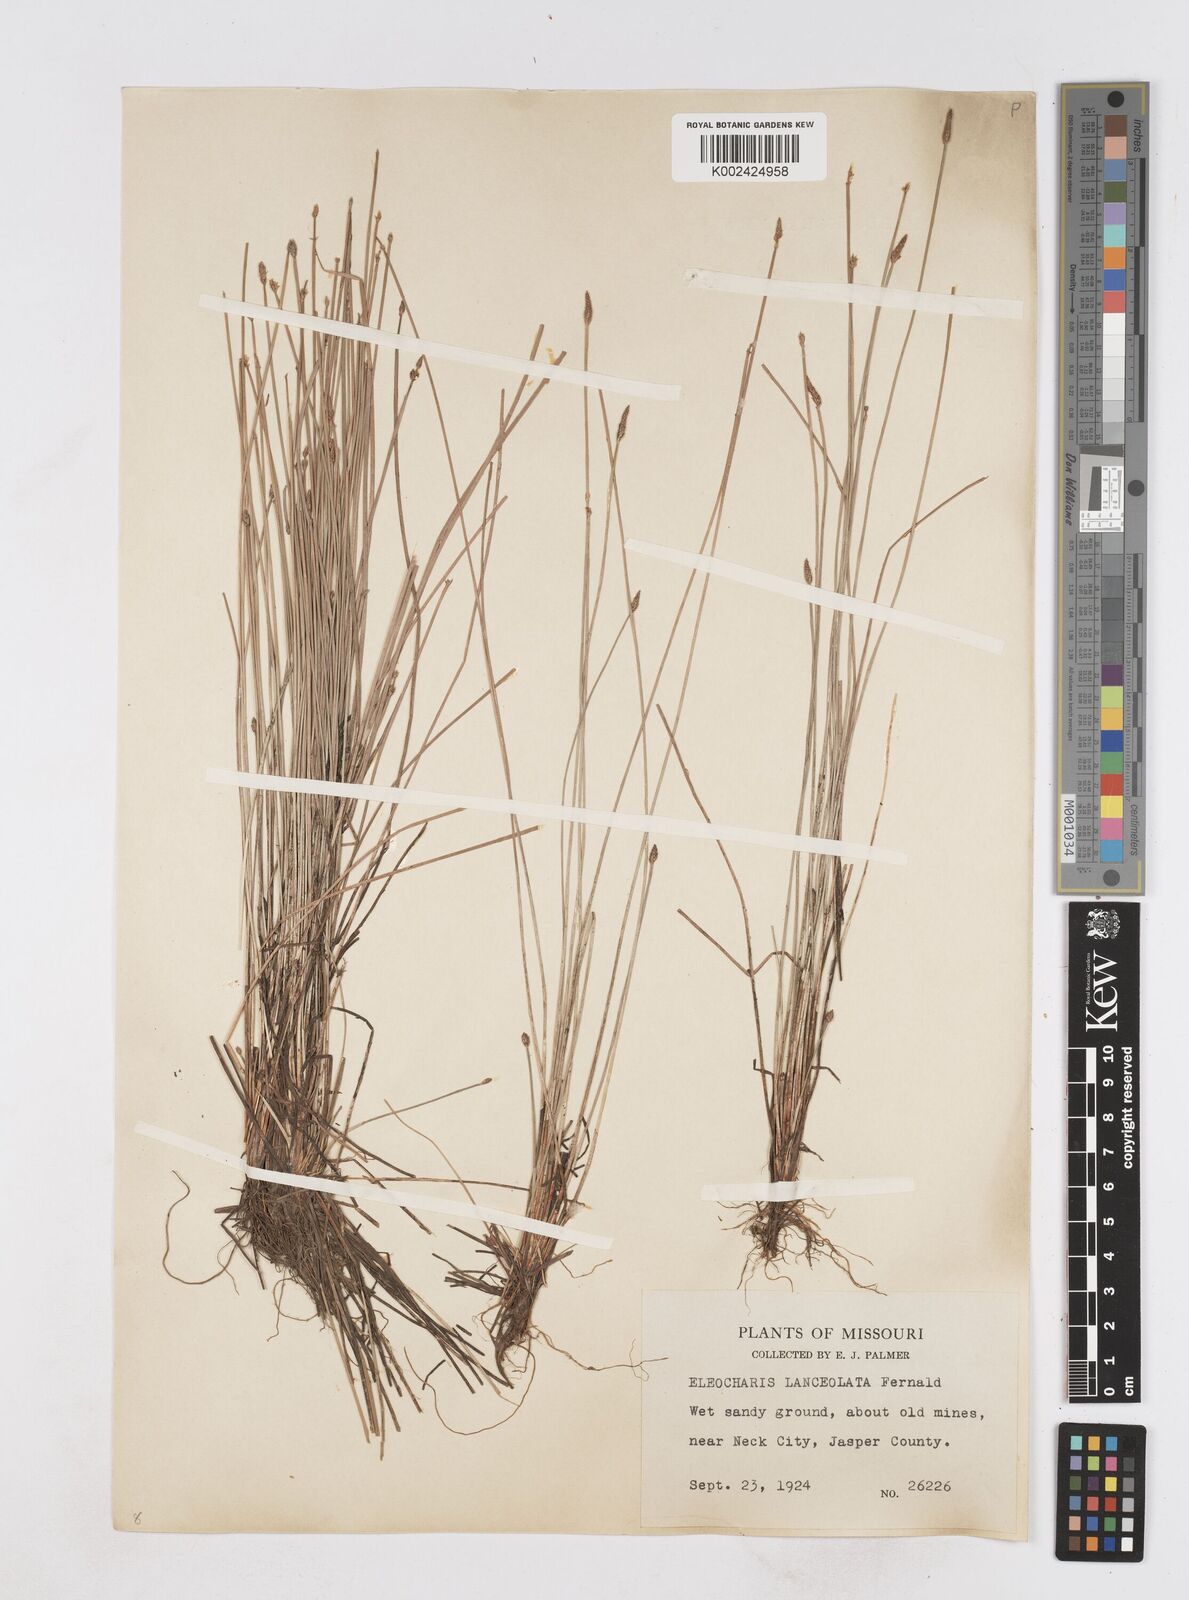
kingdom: Plantae
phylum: Tracheophyta
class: Liliopsida
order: Poales
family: Cyperaceae
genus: Eleocharis
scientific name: Eleocharis lanceolata
